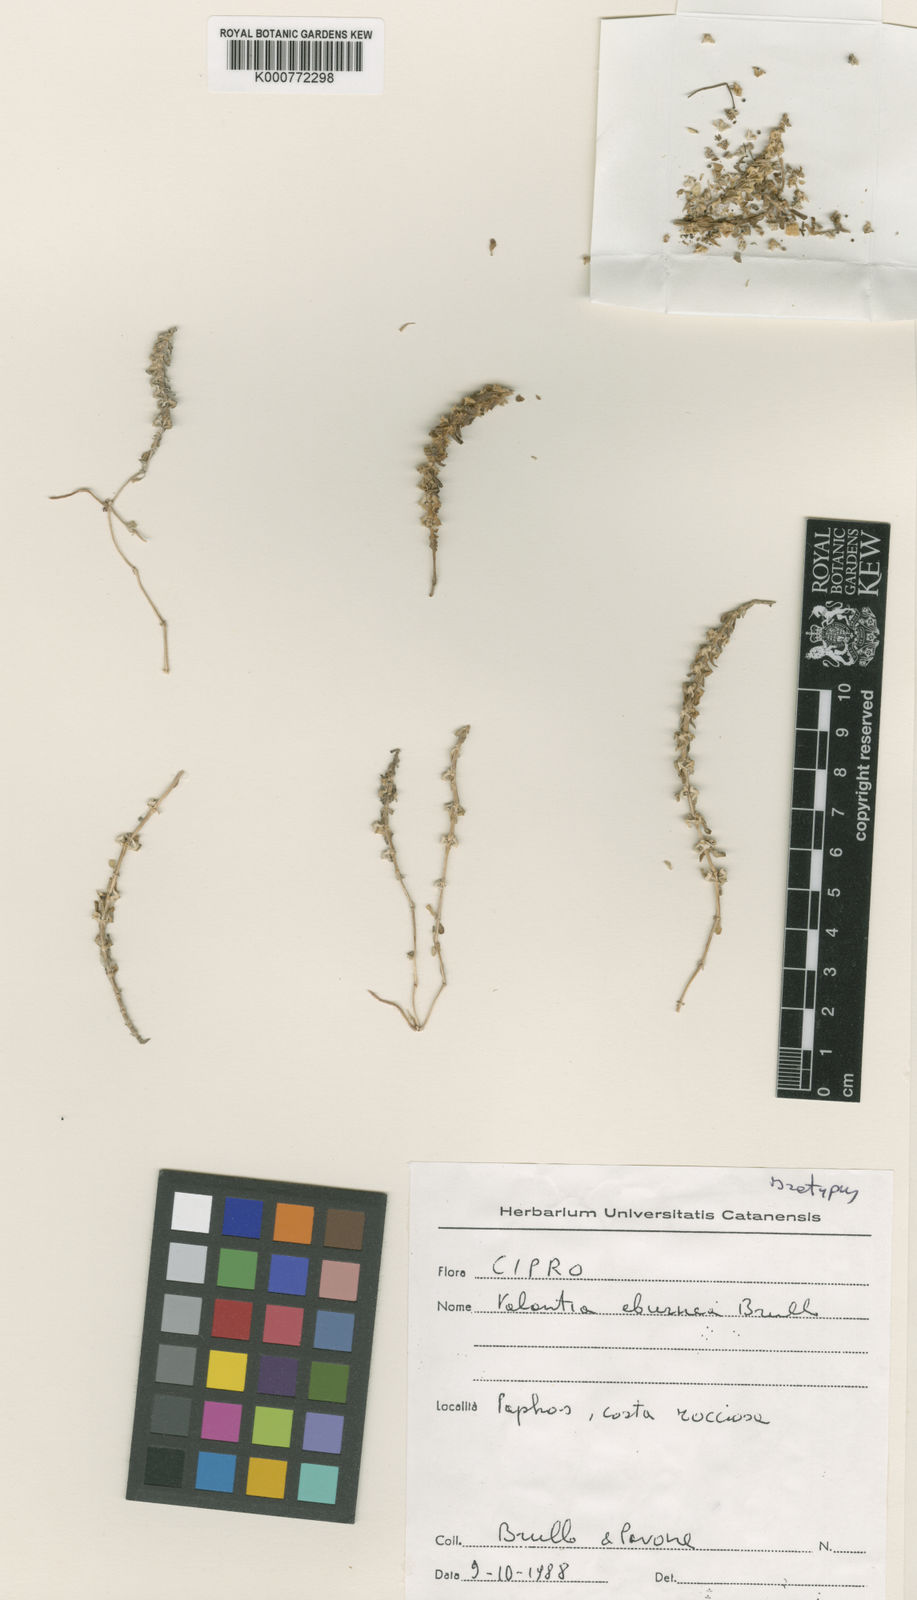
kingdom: Plantae
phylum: Tracheophyta
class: Magnoliopsida
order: Gentianales
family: Rubiaceae
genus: Valantia
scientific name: Valantia hispida
